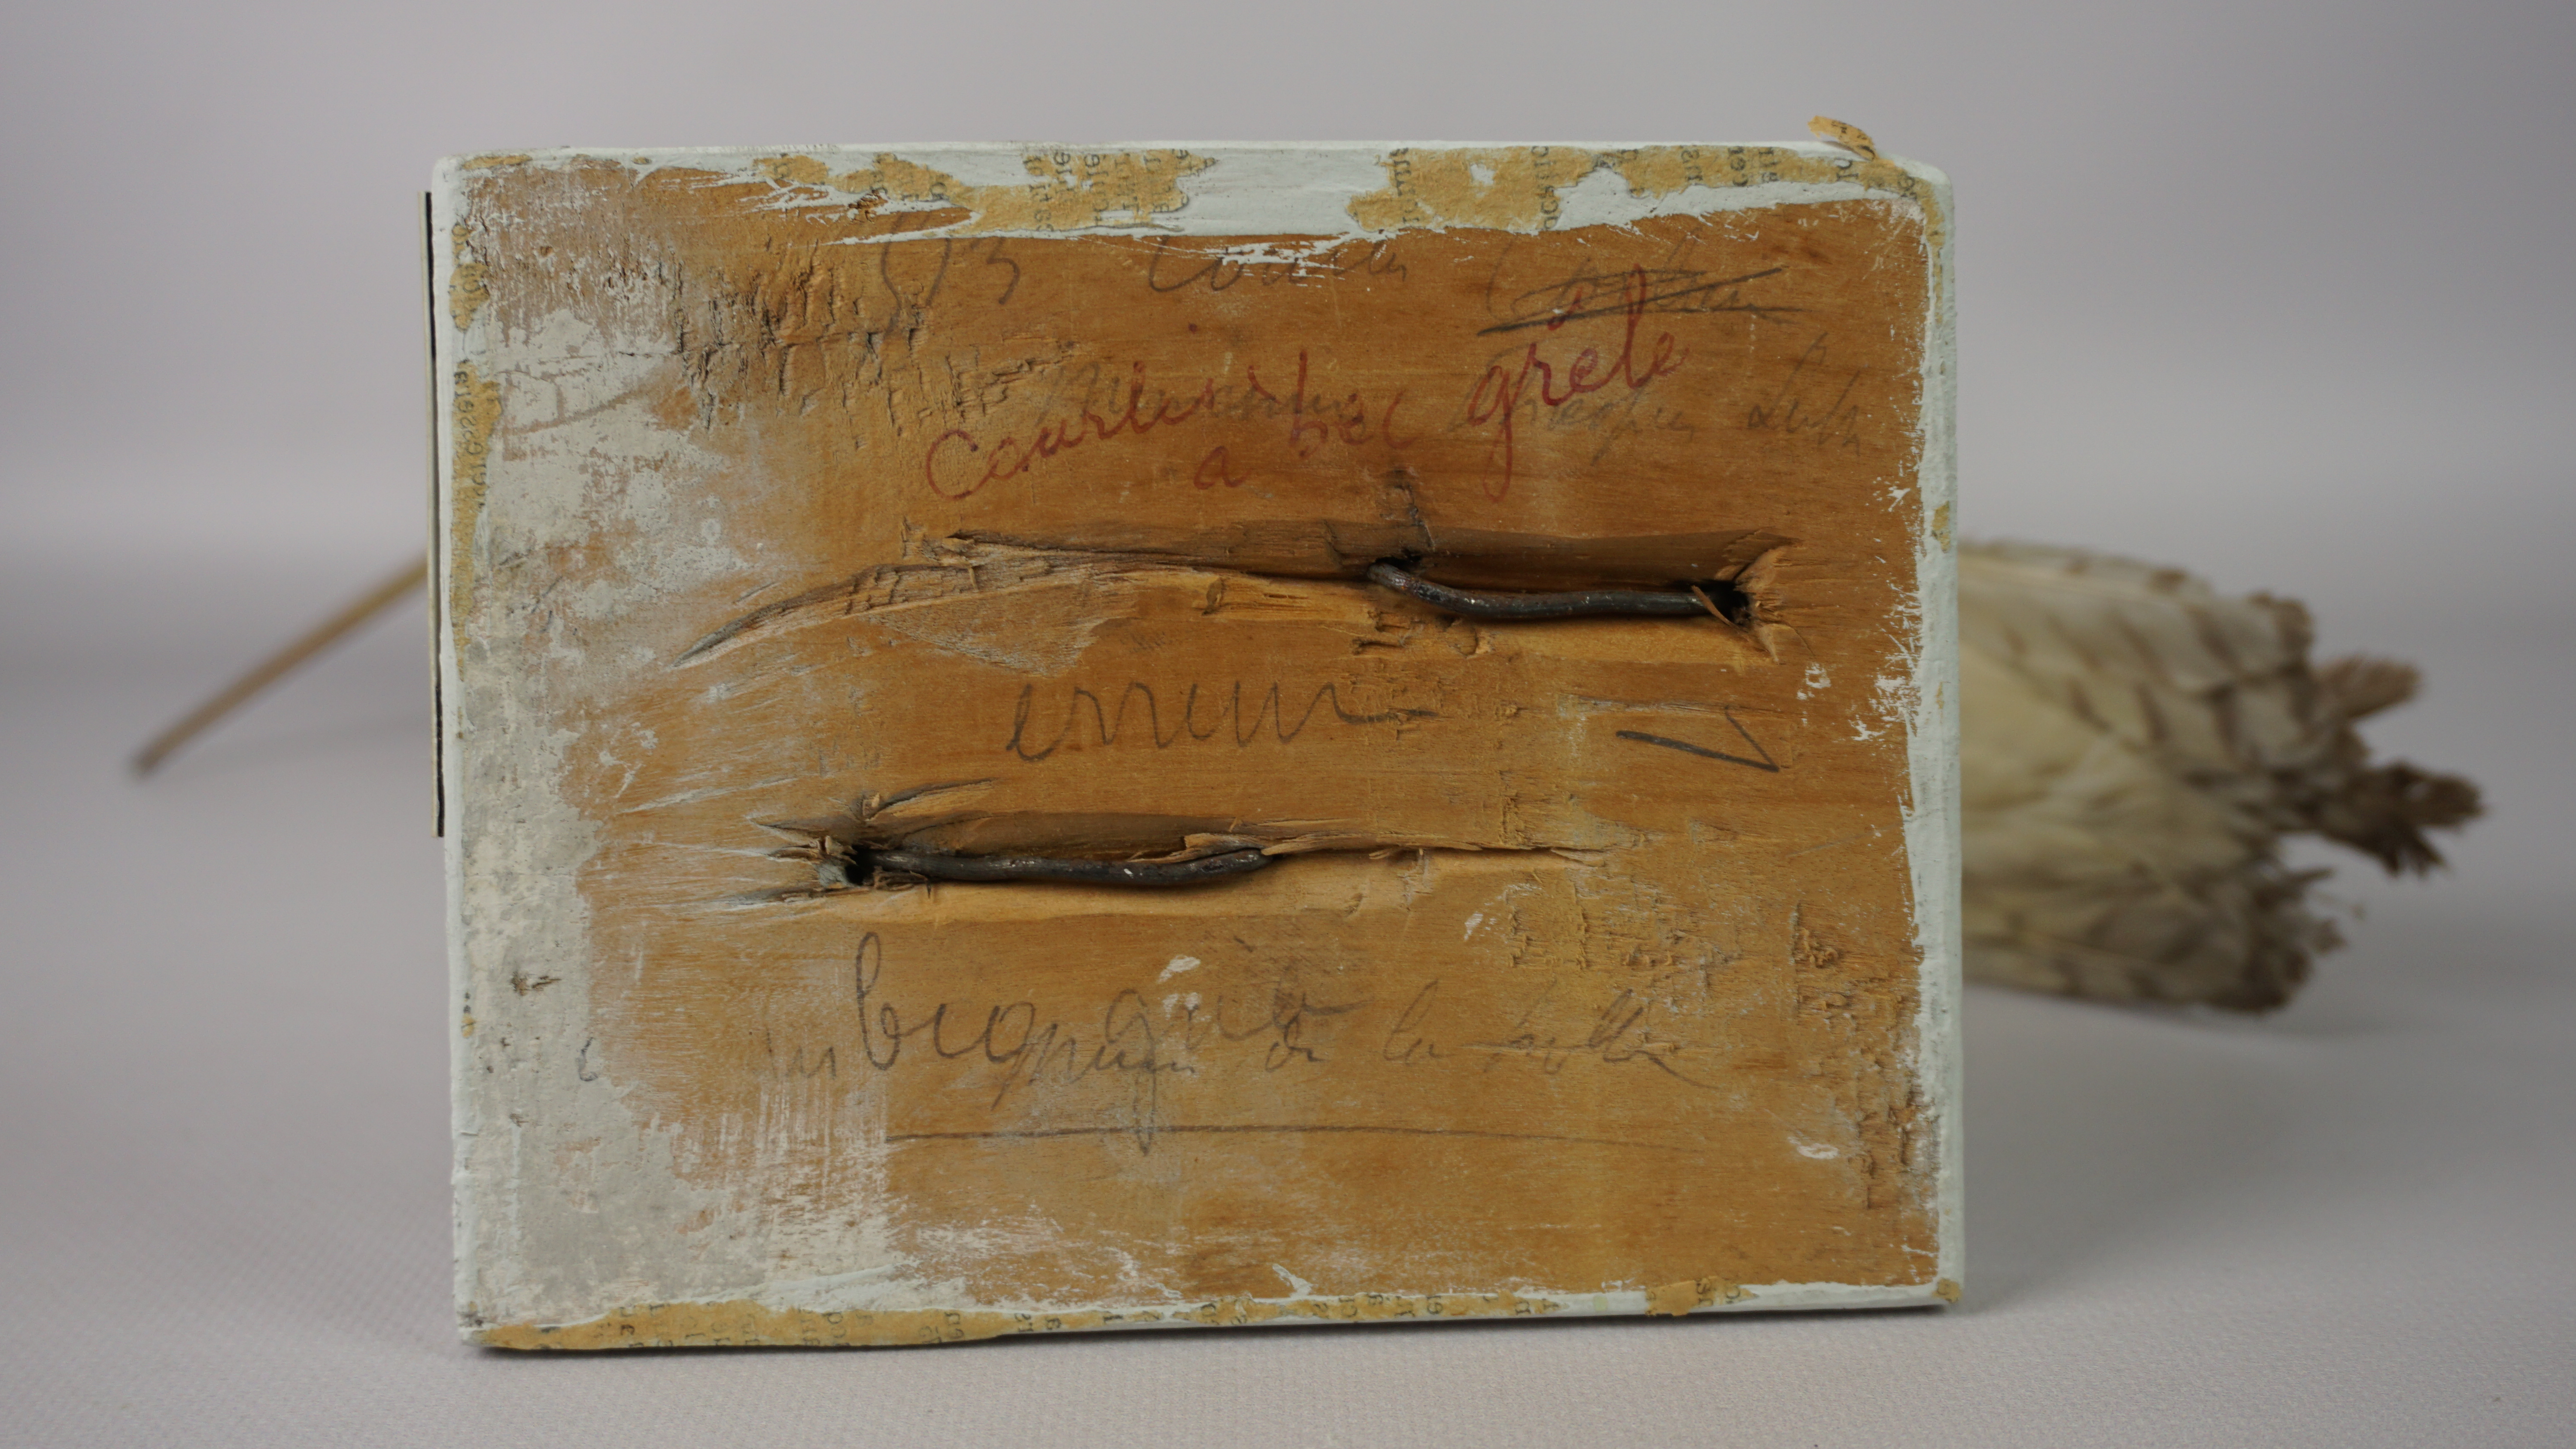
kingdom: Animalia
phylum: Chordata
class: Aves
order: Charadriiformes
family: Scolopacidae
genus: Numenius
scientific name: Numenius tenuirostris
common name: Slender-billed curlew
